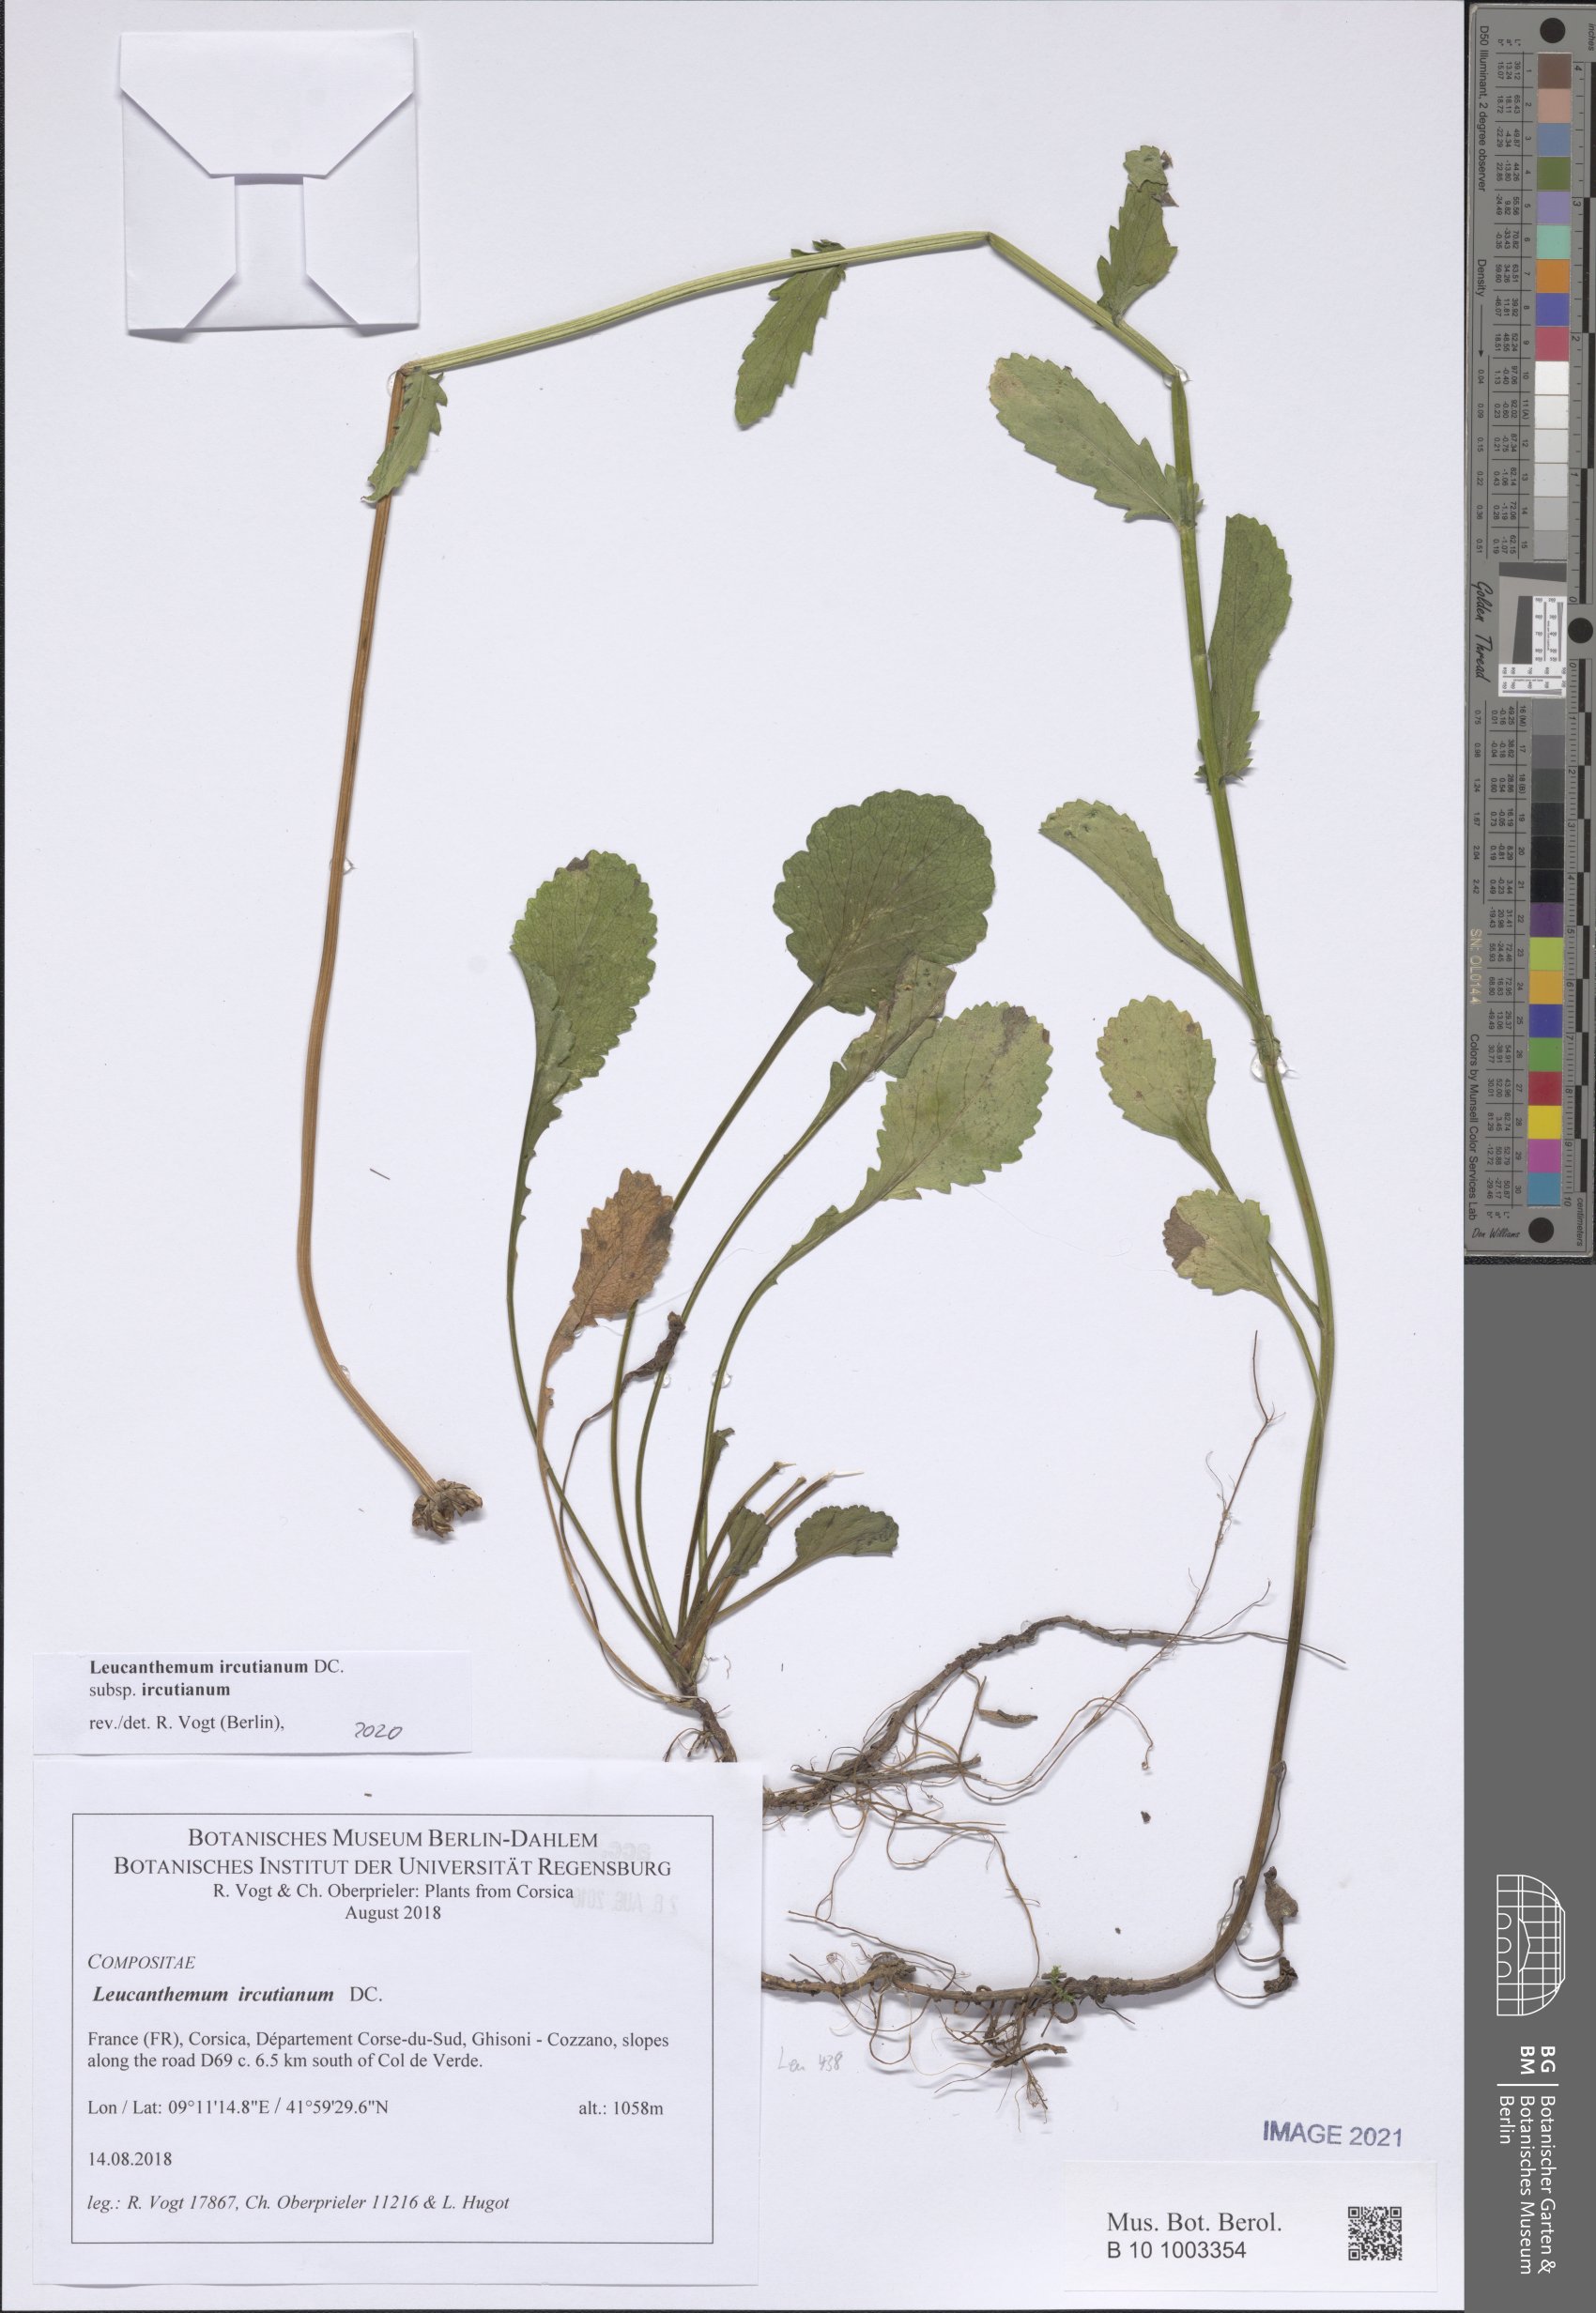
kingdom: Plantae
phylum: Tracheophyta
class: Magnoliopsida
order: Asterales
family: Asteraceae
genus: Leucanthemum
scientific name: Leucanthemum ircutianum
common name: Daisy
